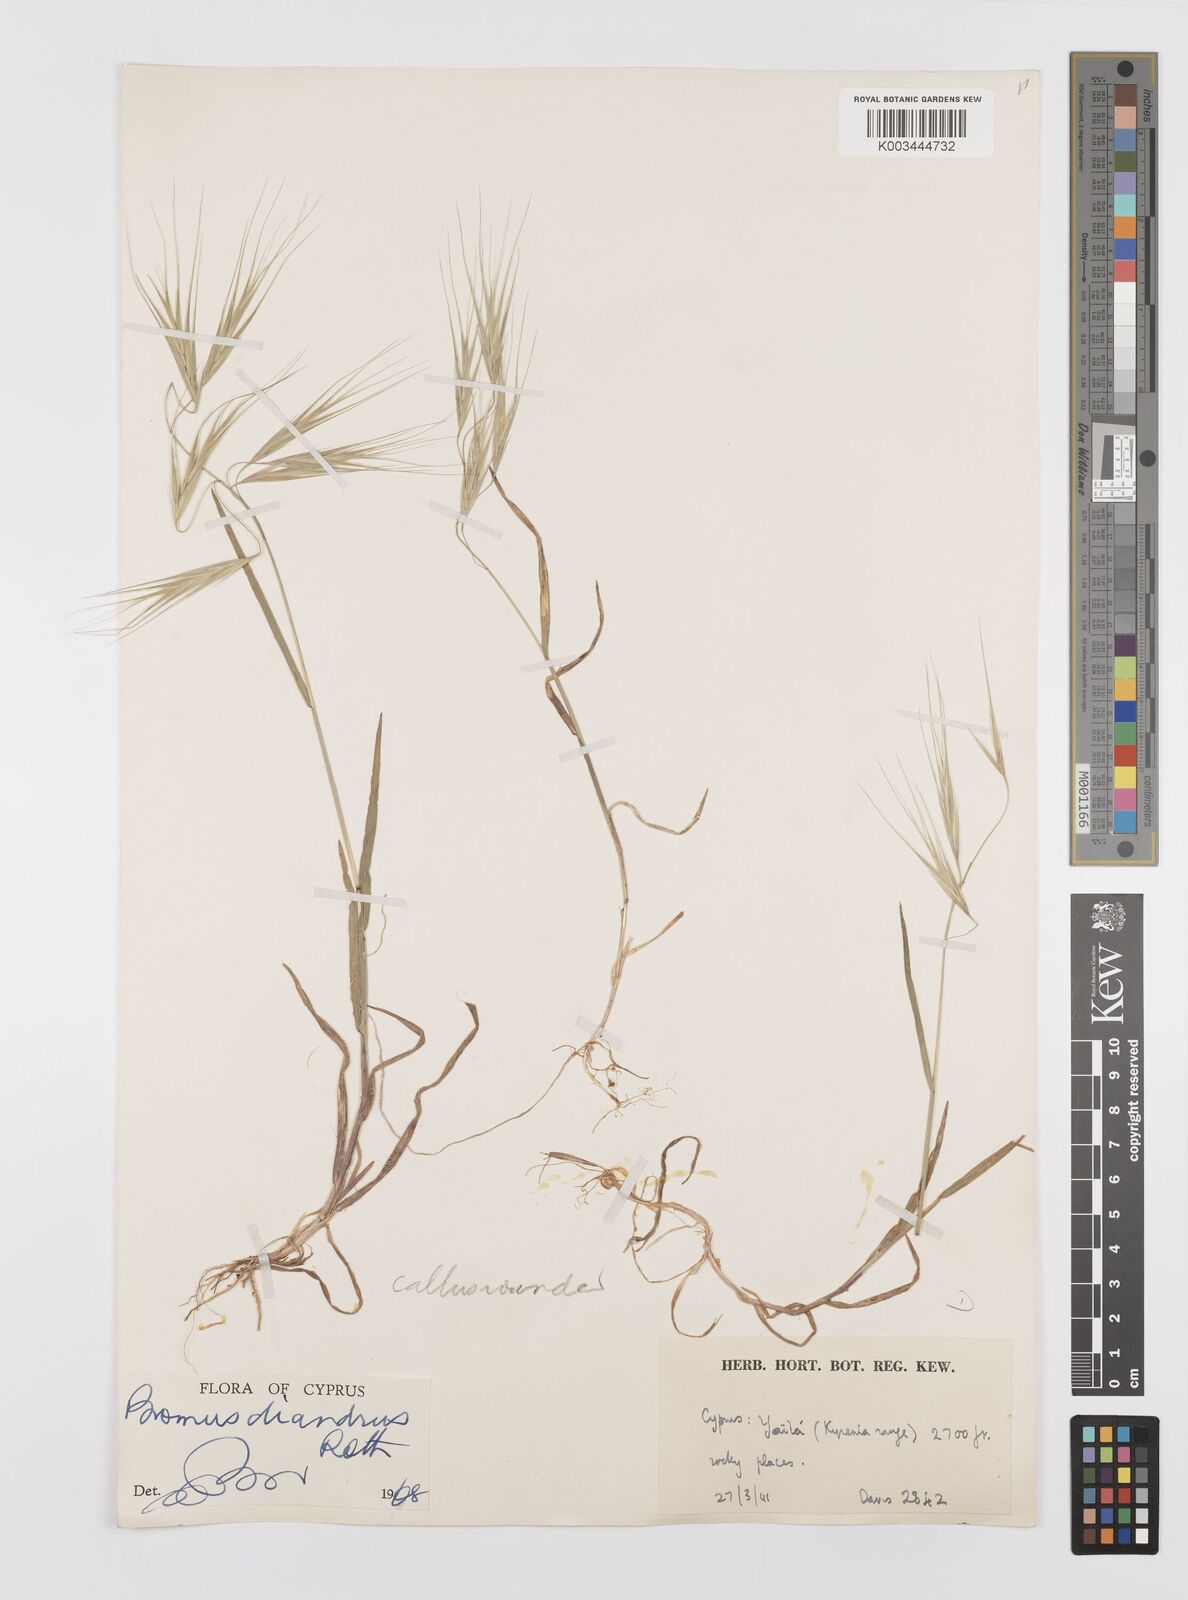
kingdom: Plantae
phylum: Tracheophyta
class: Liliopsida
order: Poales
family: Poaceae
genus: Bromus
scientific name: Bromus diandrus
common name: Ripgut brome
